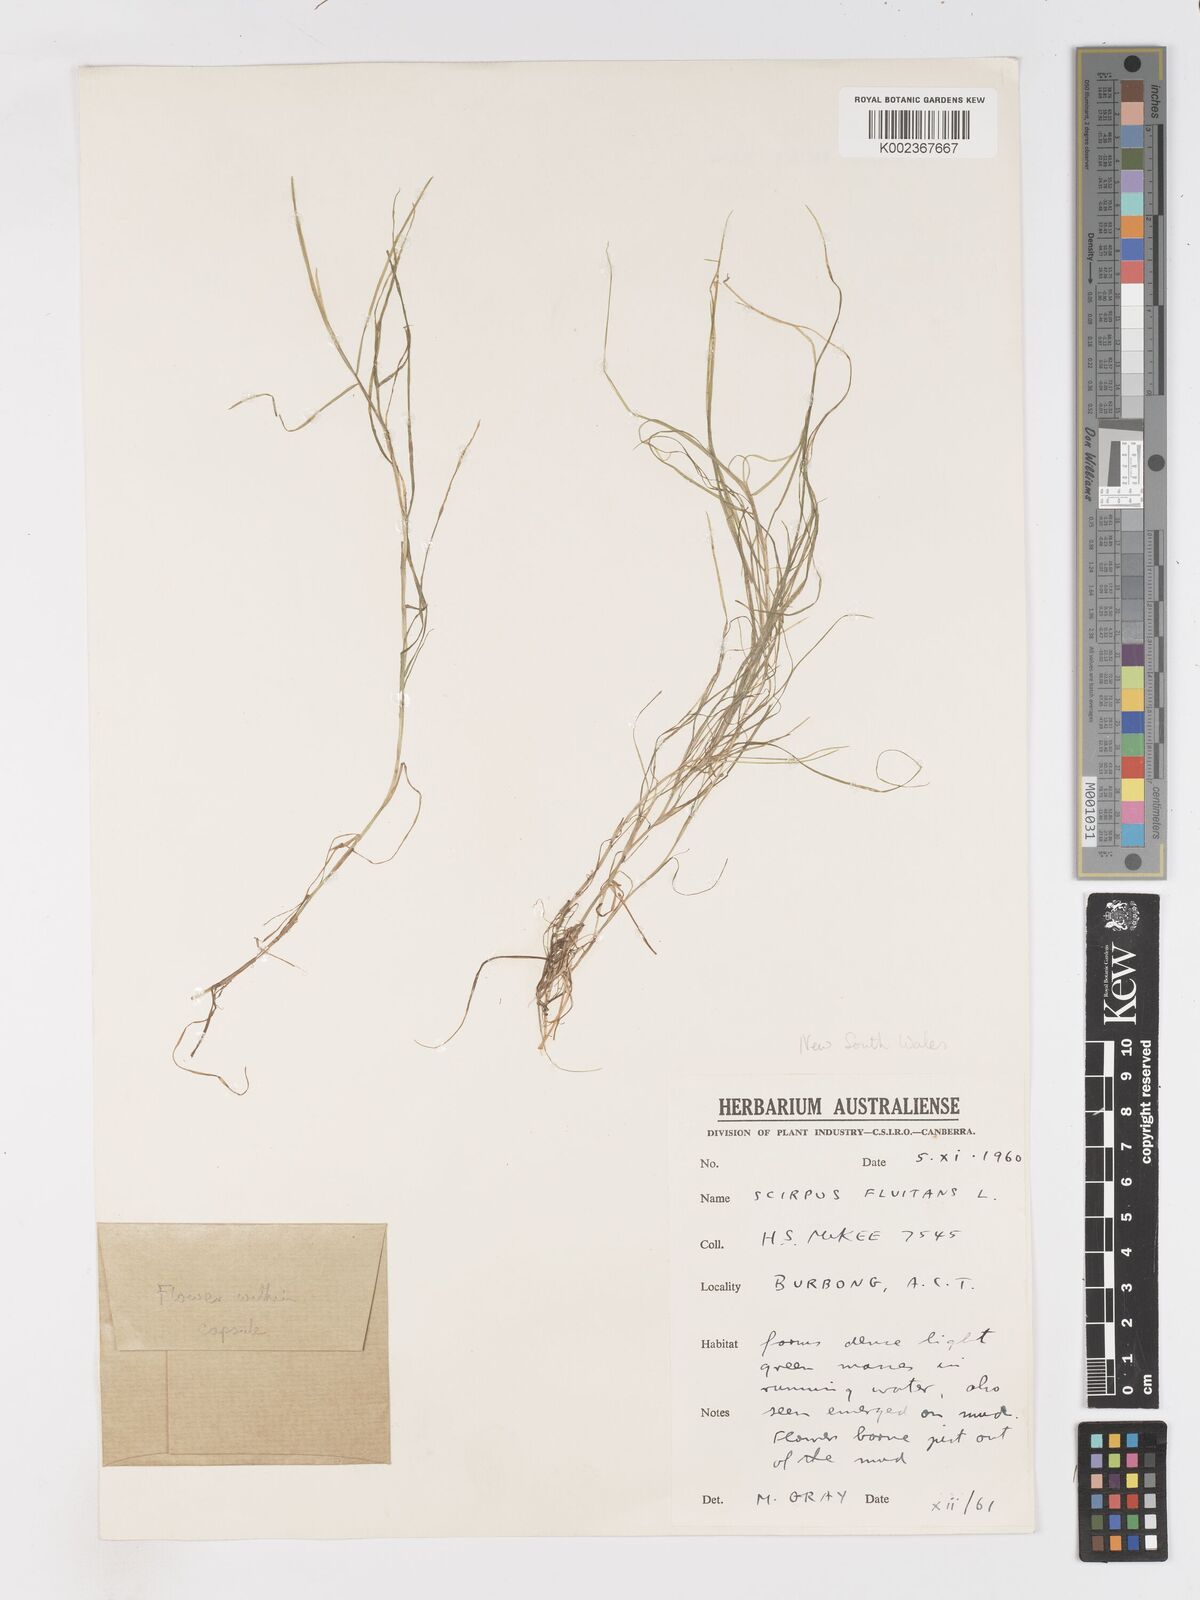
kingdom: Plantae
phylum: Tracheophyta
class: Liliopsida
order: Poales
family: Cyperaceae
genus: Isolepis
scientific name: Isolepis fluitans
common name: Floating club-rush
